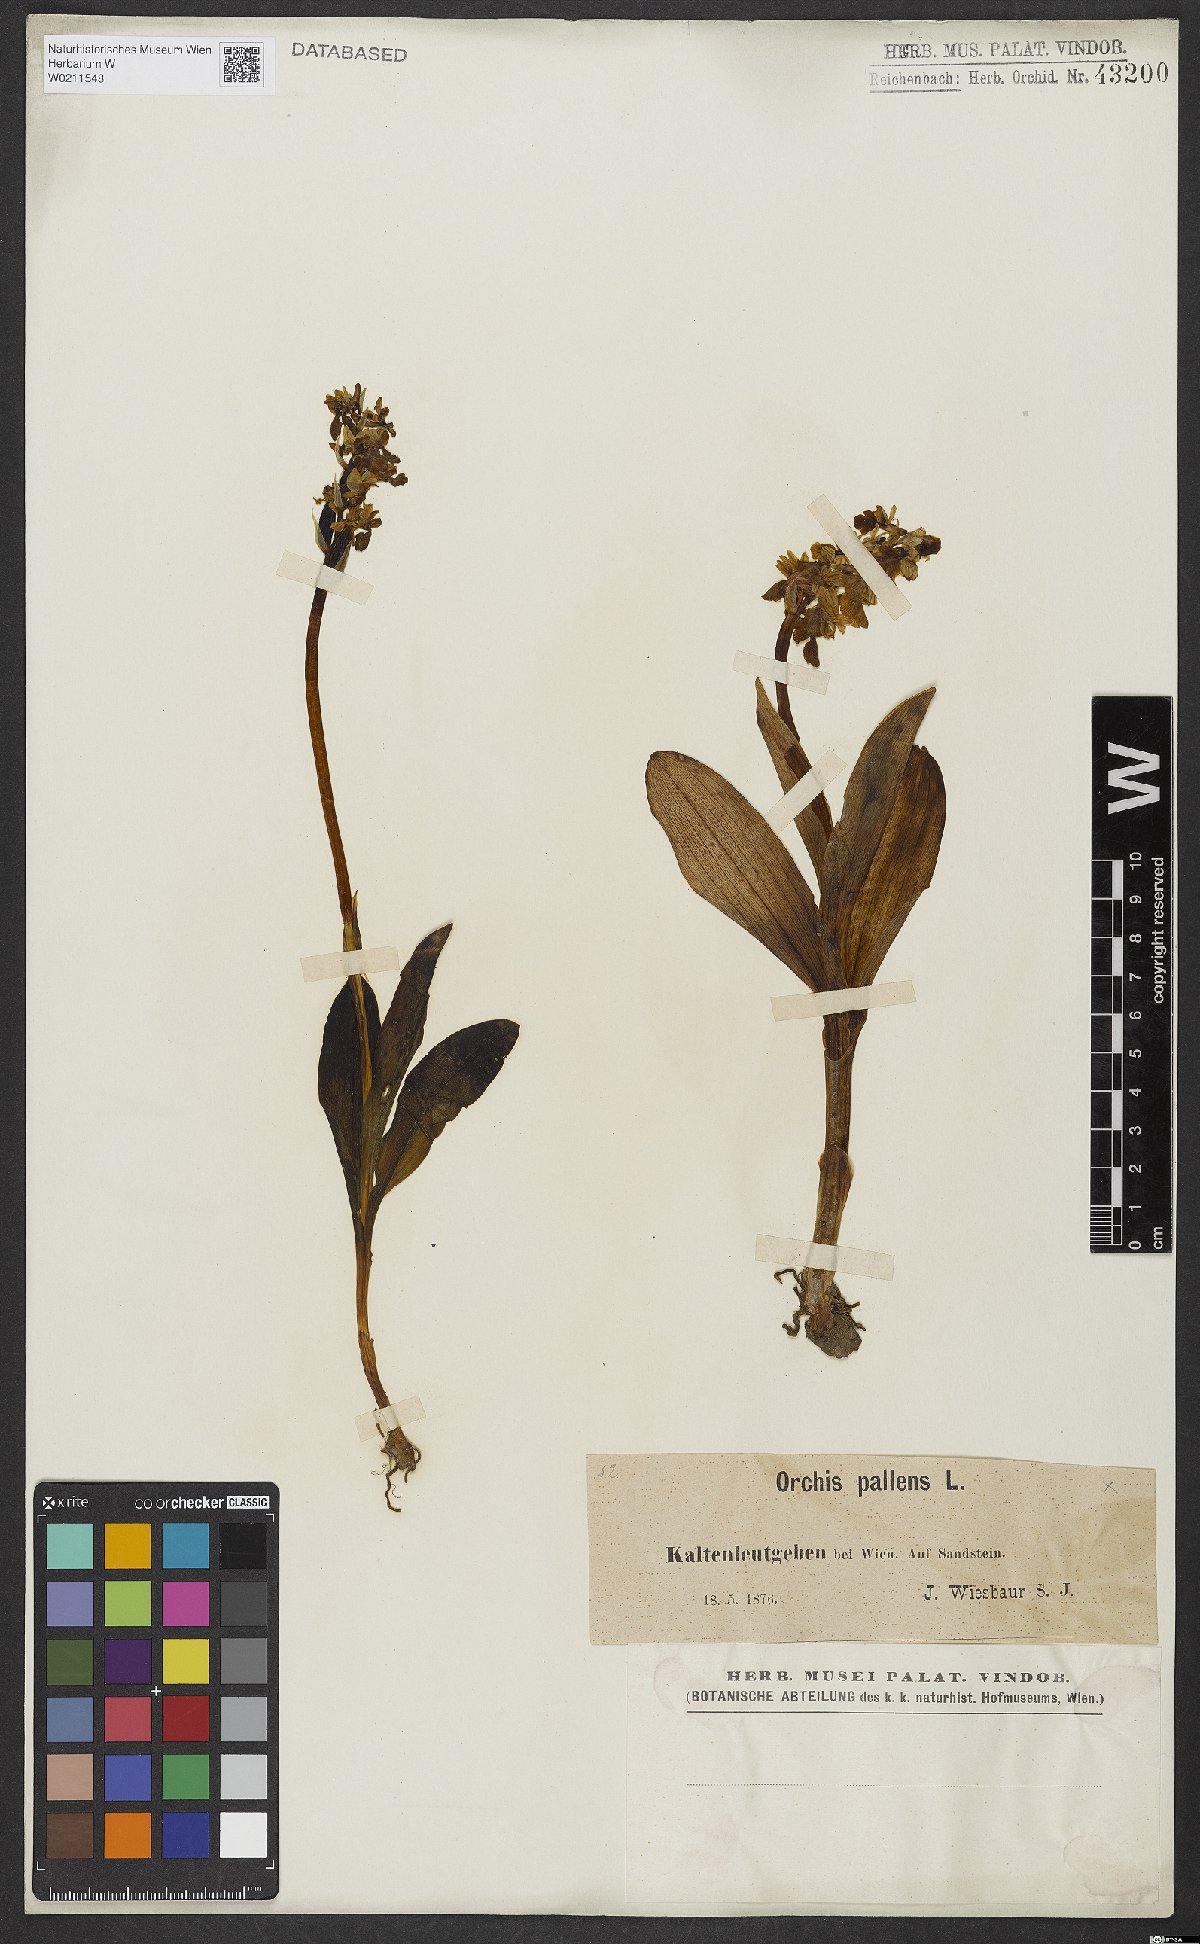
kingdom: Plantae
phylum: Tracheophyta
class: Liliopsida
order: Asparagales
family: Orchidaceae
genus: Orchis
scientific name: Orchis pallens
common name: Pale-flowered orchid
